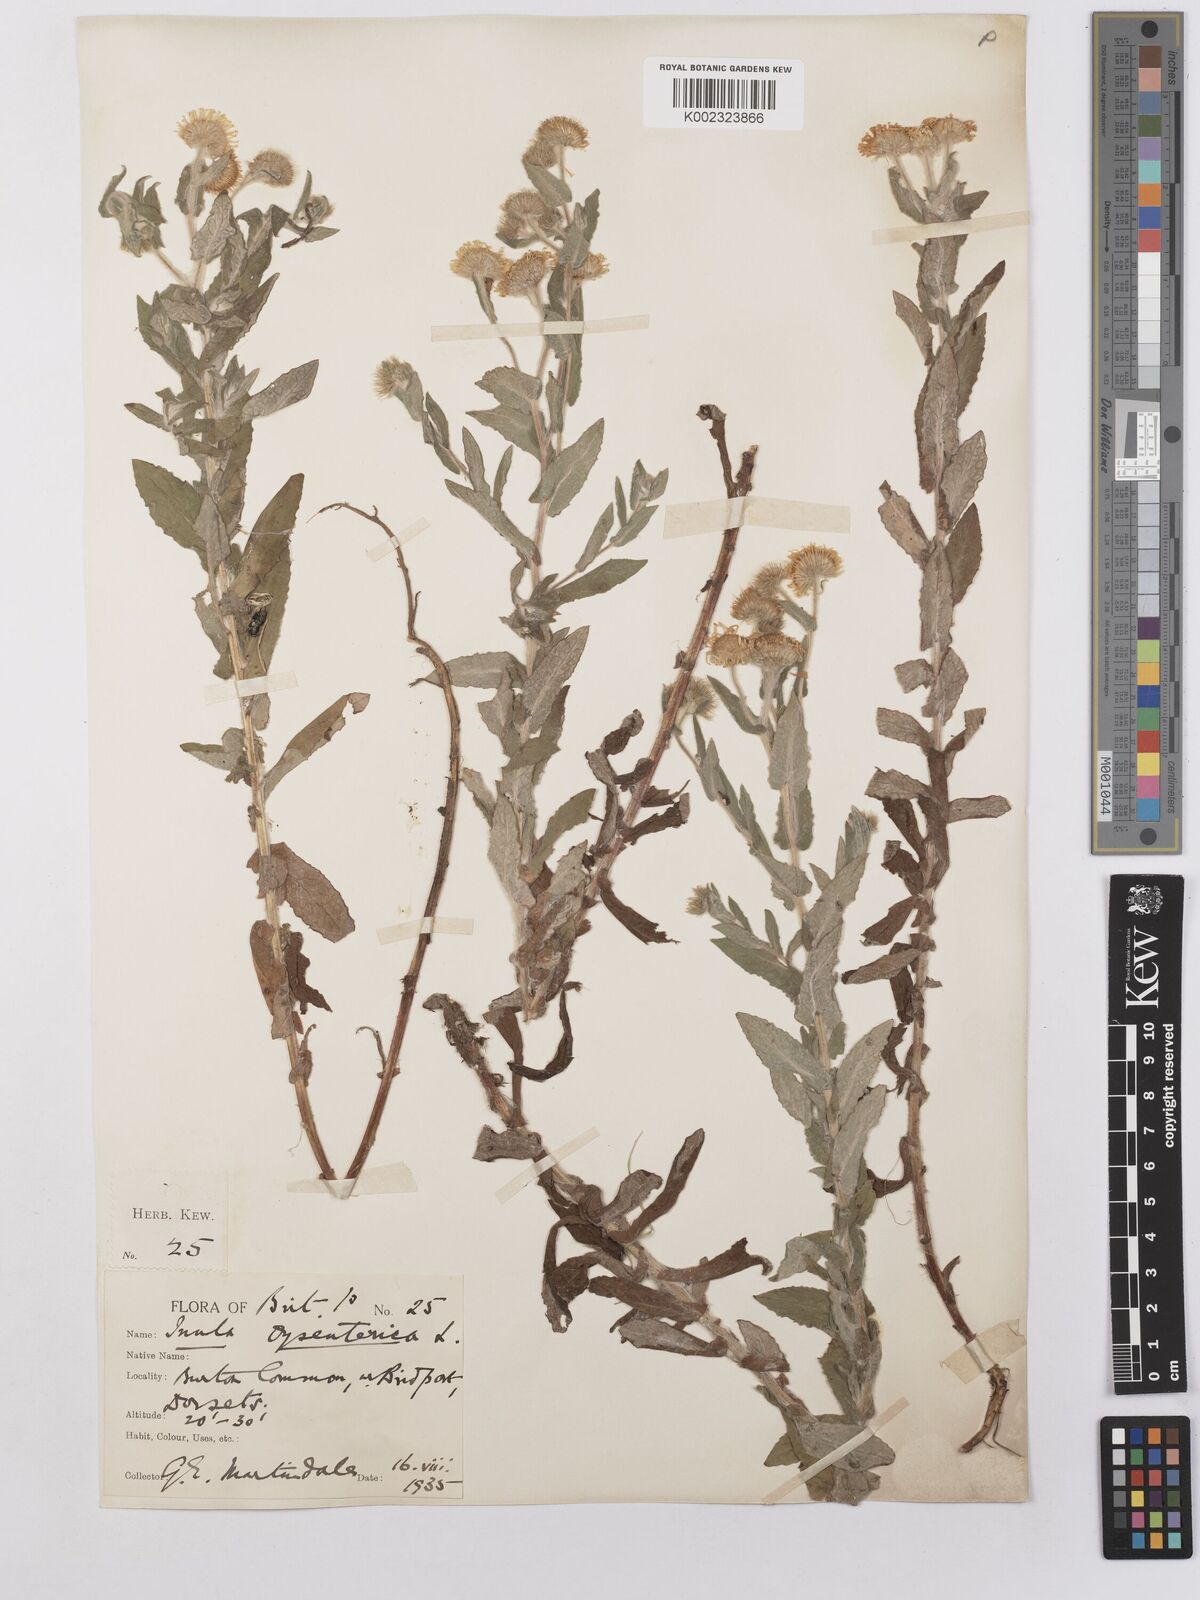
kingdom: Plantae
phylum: Tracheophyta
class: Magnoliopsida
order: Asterales
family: Asteraceae
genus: Pulicaria
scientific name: Pulicaria dysenterica
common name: Common fleabane
